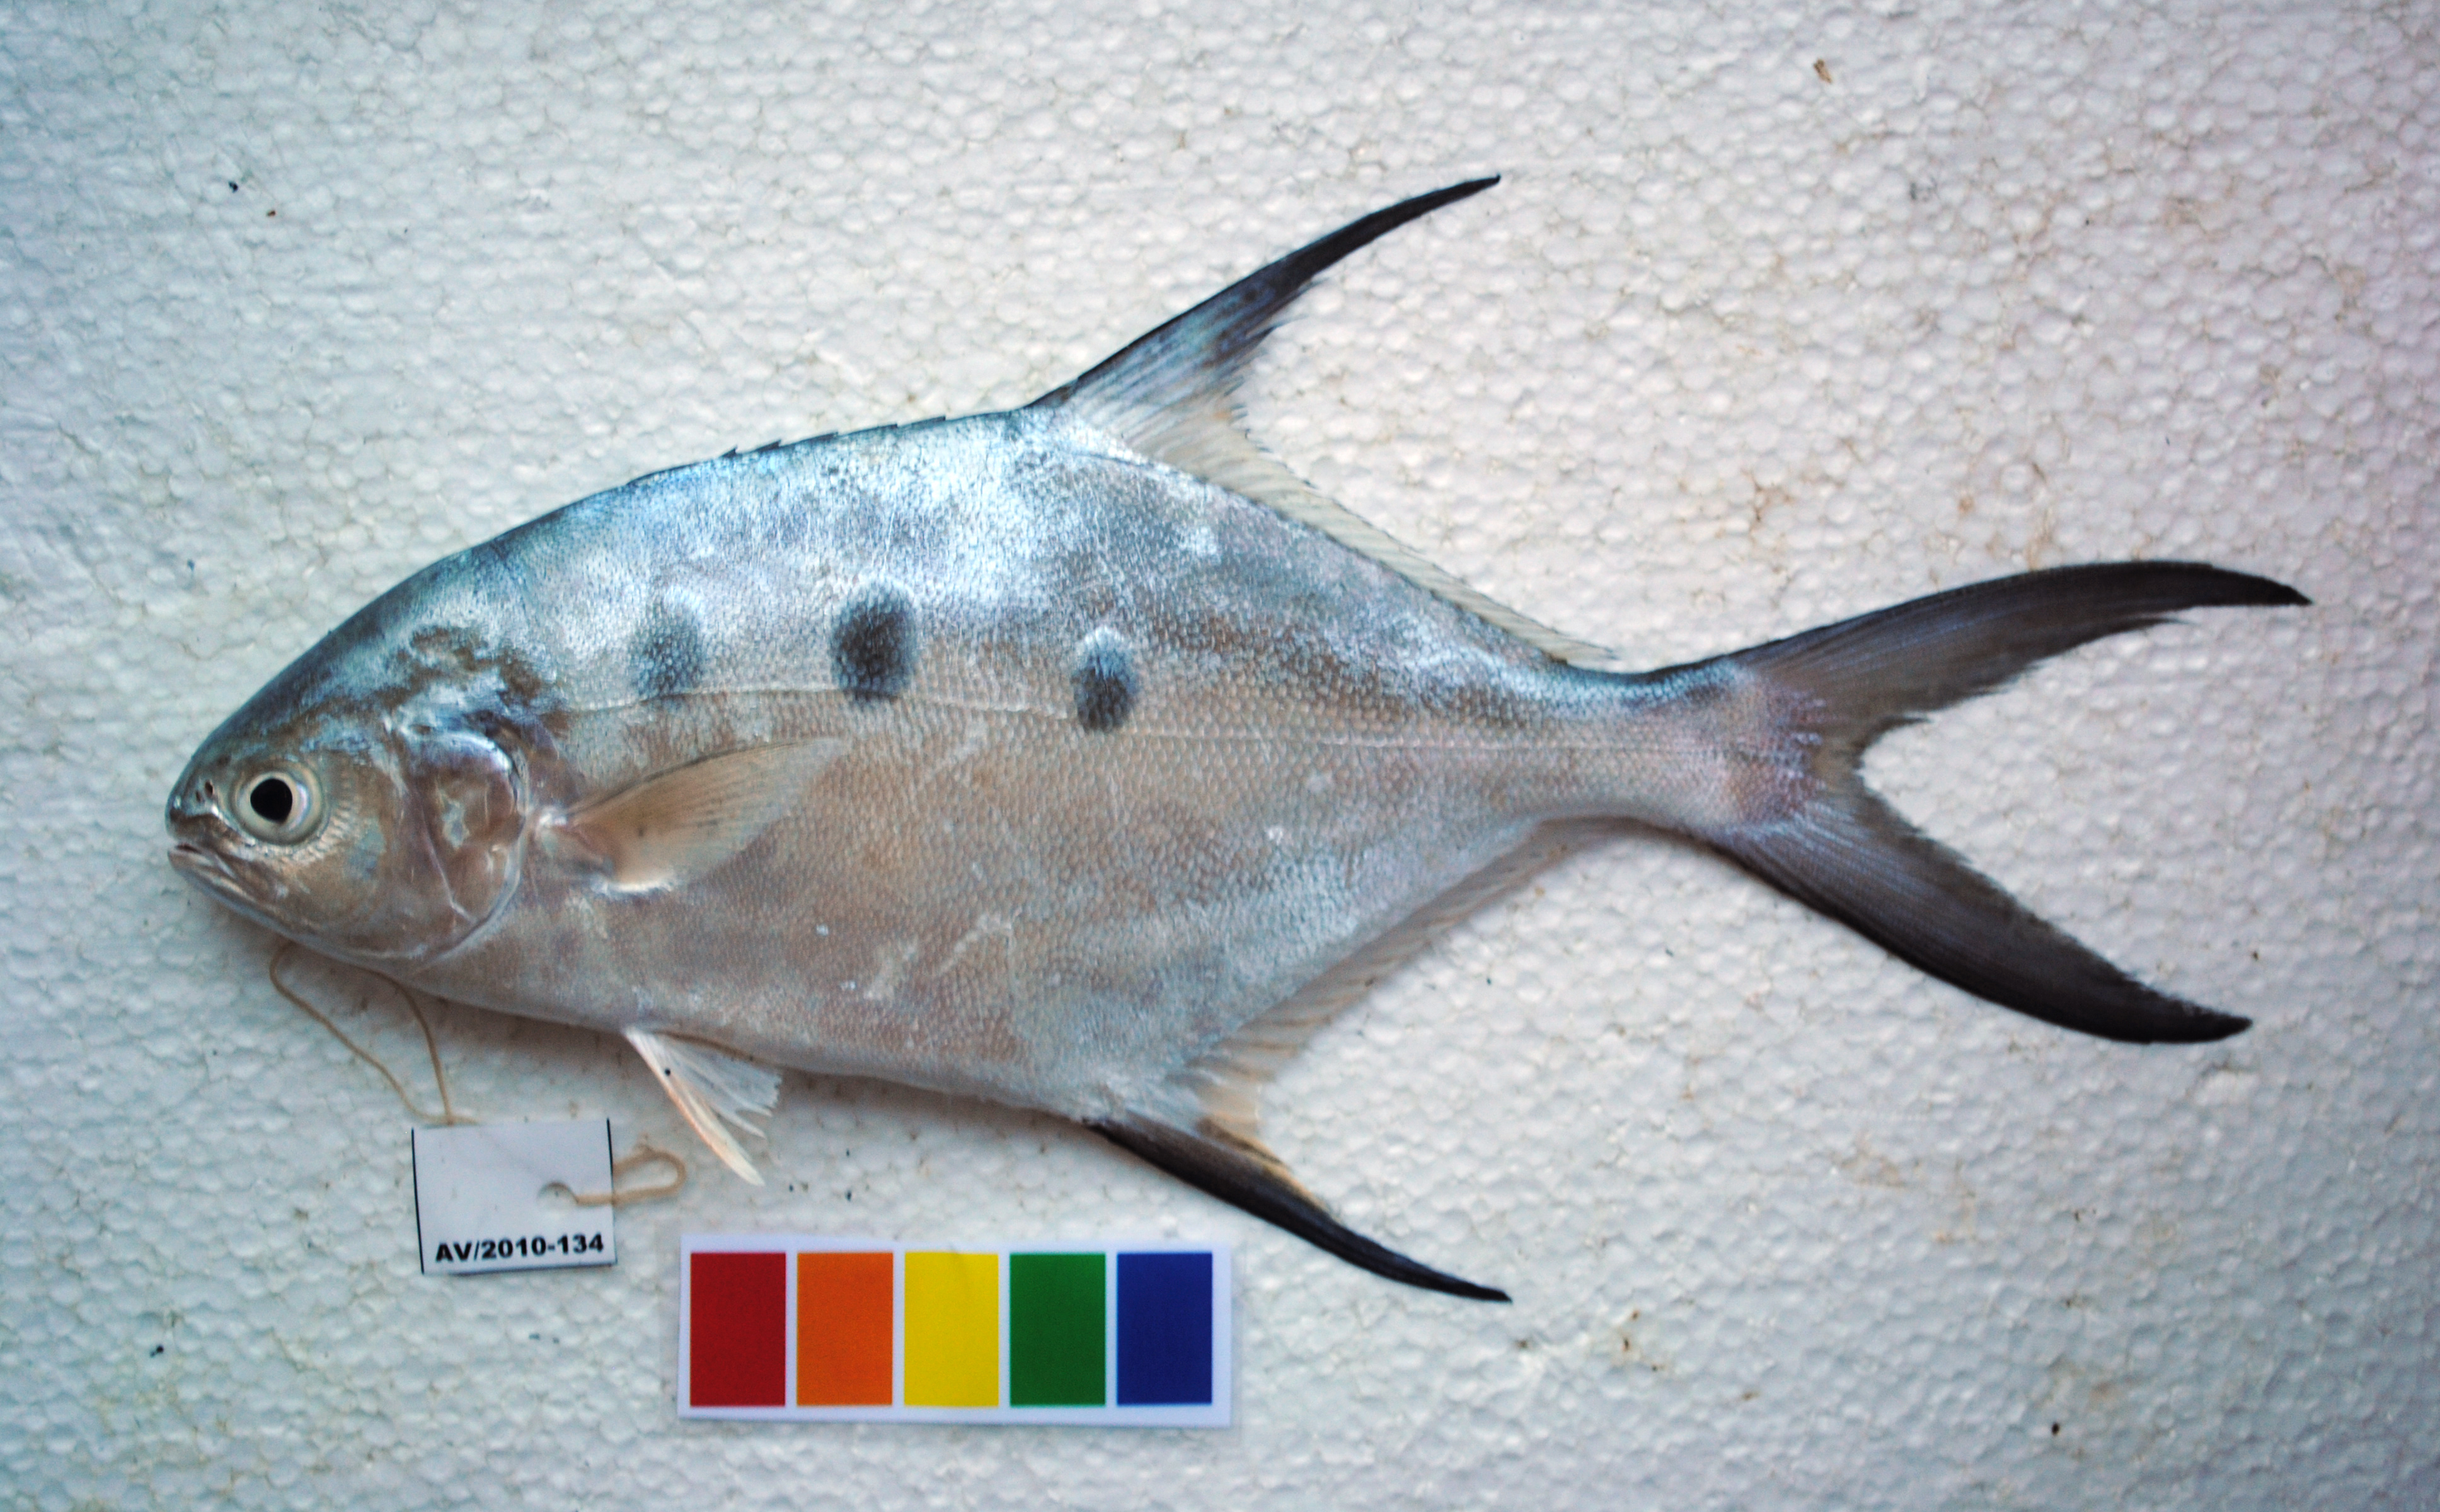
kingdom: Animalia
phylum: Chordata
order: Perciformes
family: Carangidae
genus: Trachinotus
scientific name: Trachinotus botla
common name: Common dart
